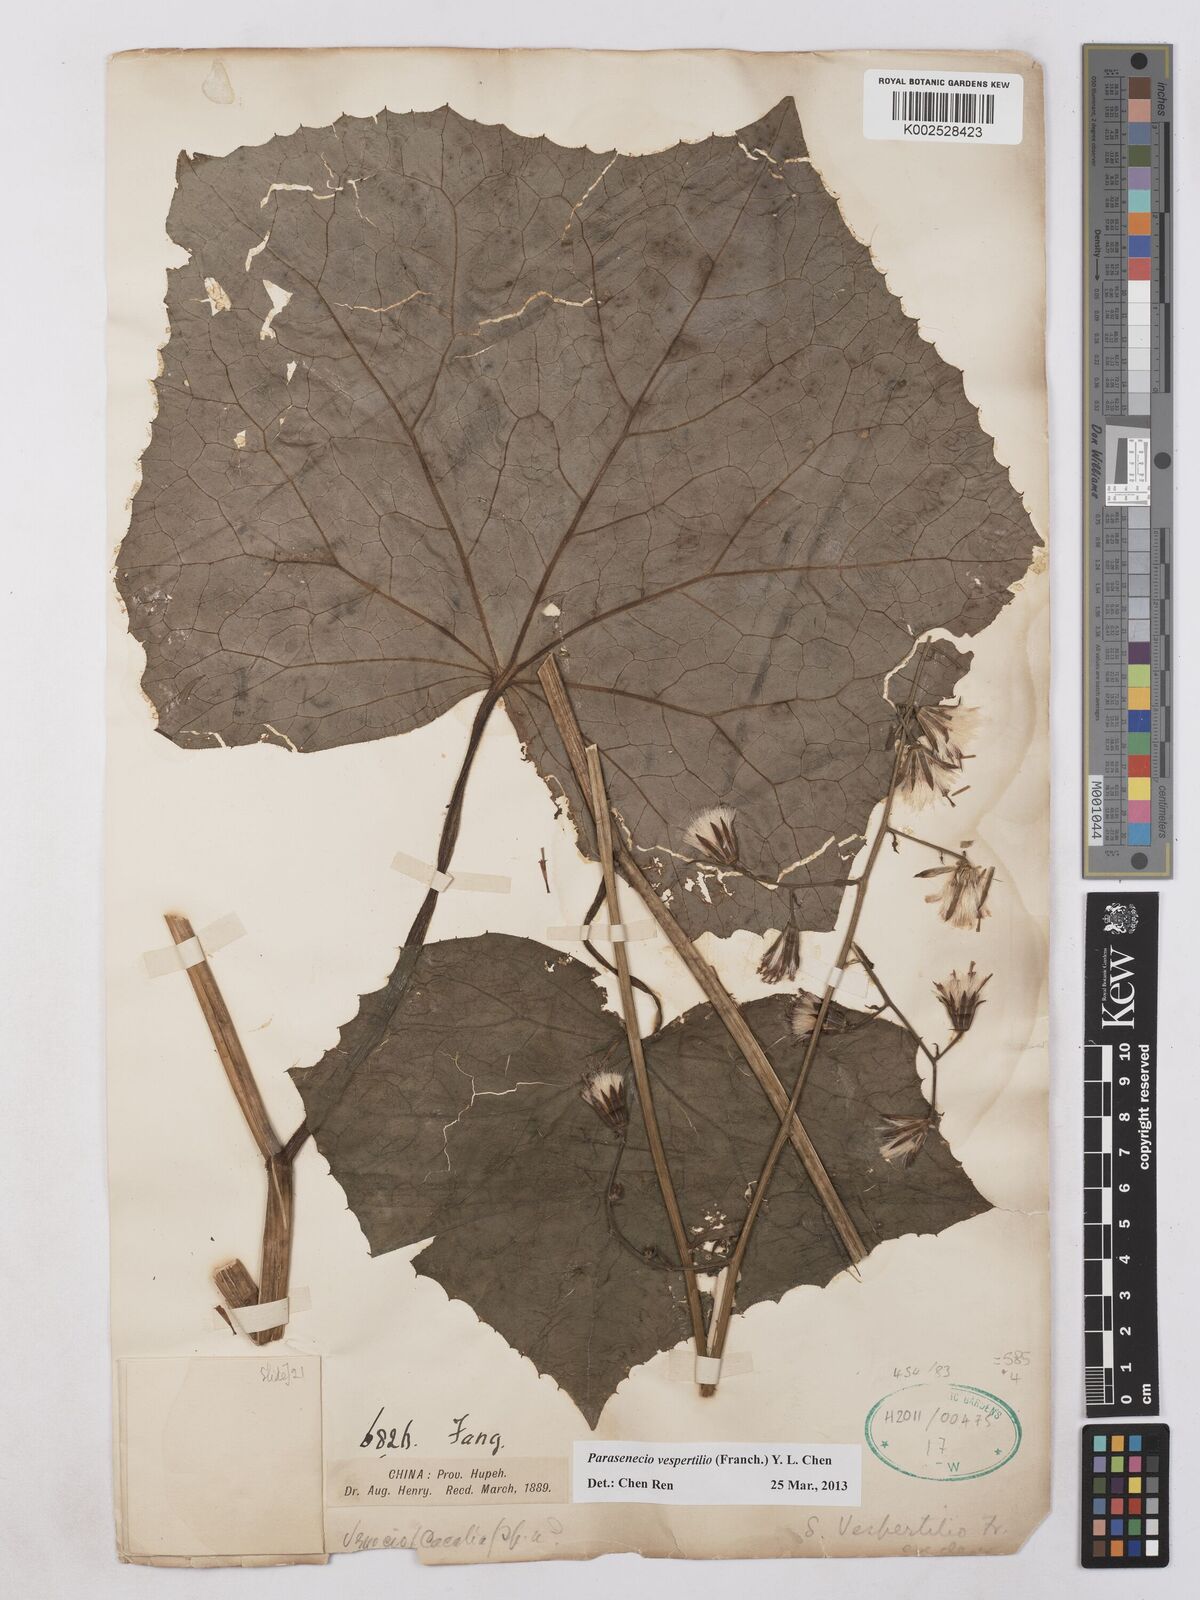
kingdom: Plantae
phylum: Tracheophyta
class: Magnoliopsida
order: Asterales
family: Asteraceae
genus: Parasenecio
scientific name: Parasenecio vespertilo
